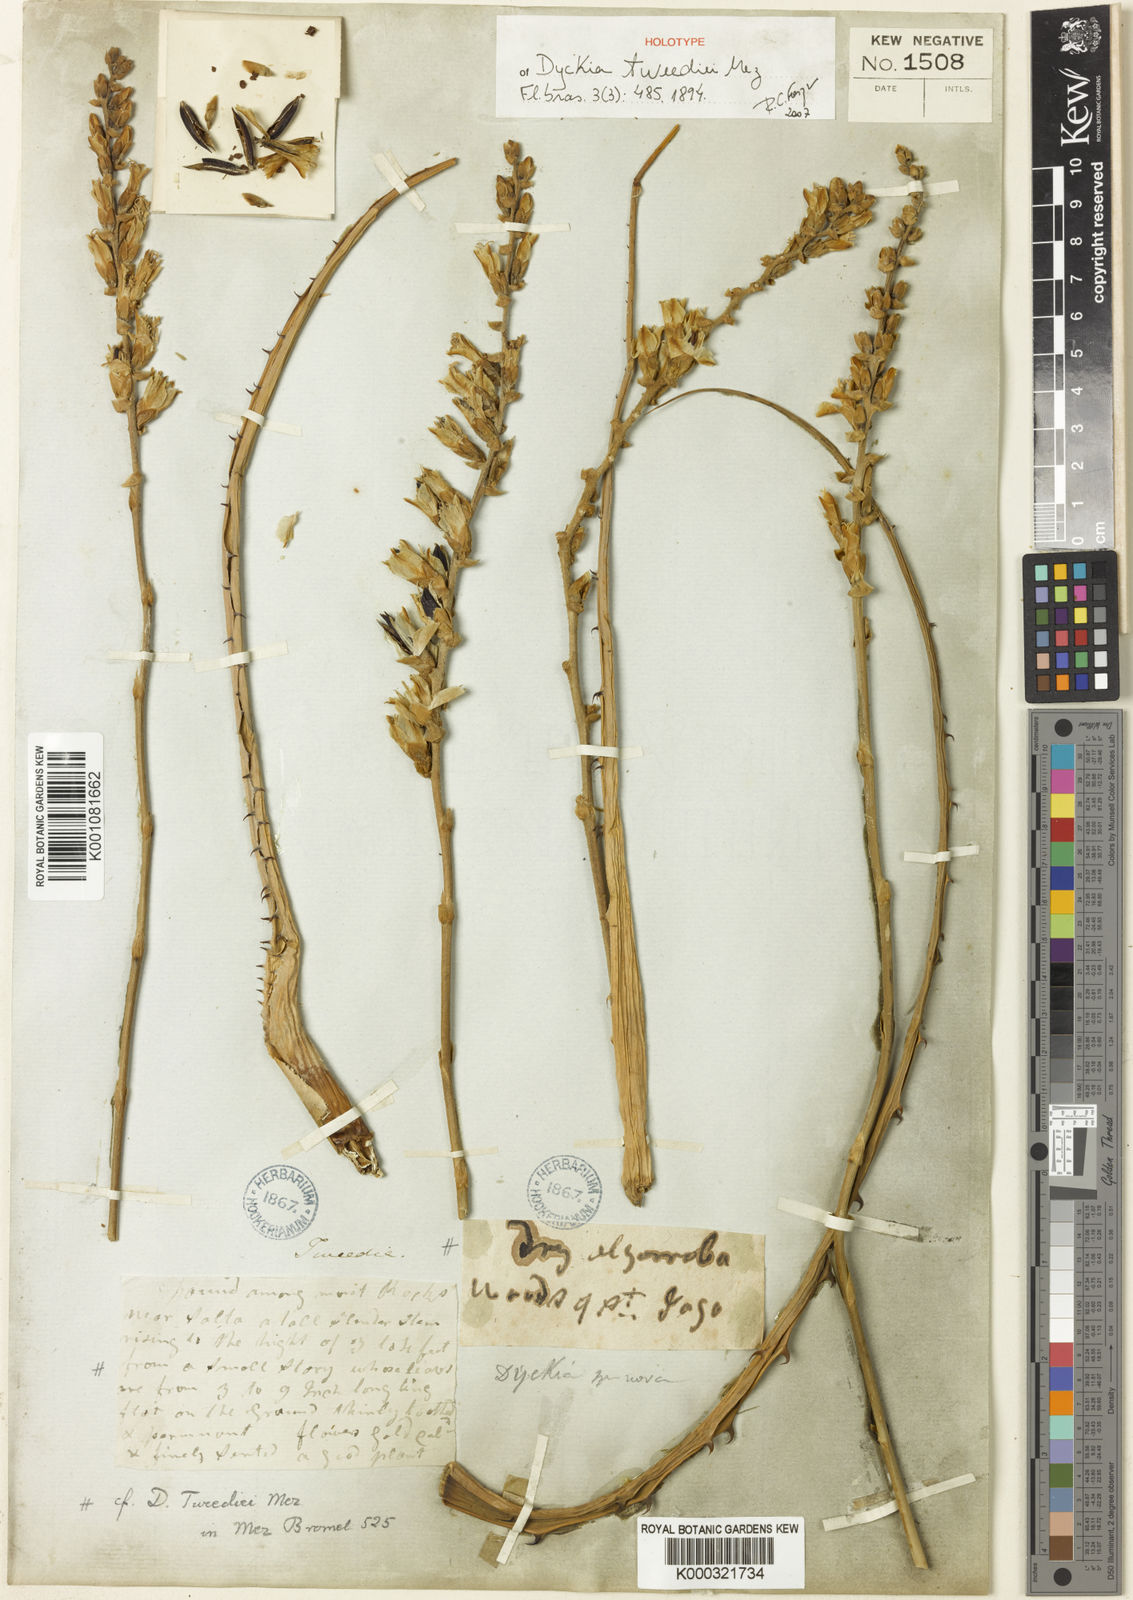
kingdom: Plantae
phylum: Tracheophyta
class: Liliopsida
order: Poales
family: Bromeliaceae
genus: Dyckia
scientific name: Dyckia tweediei
